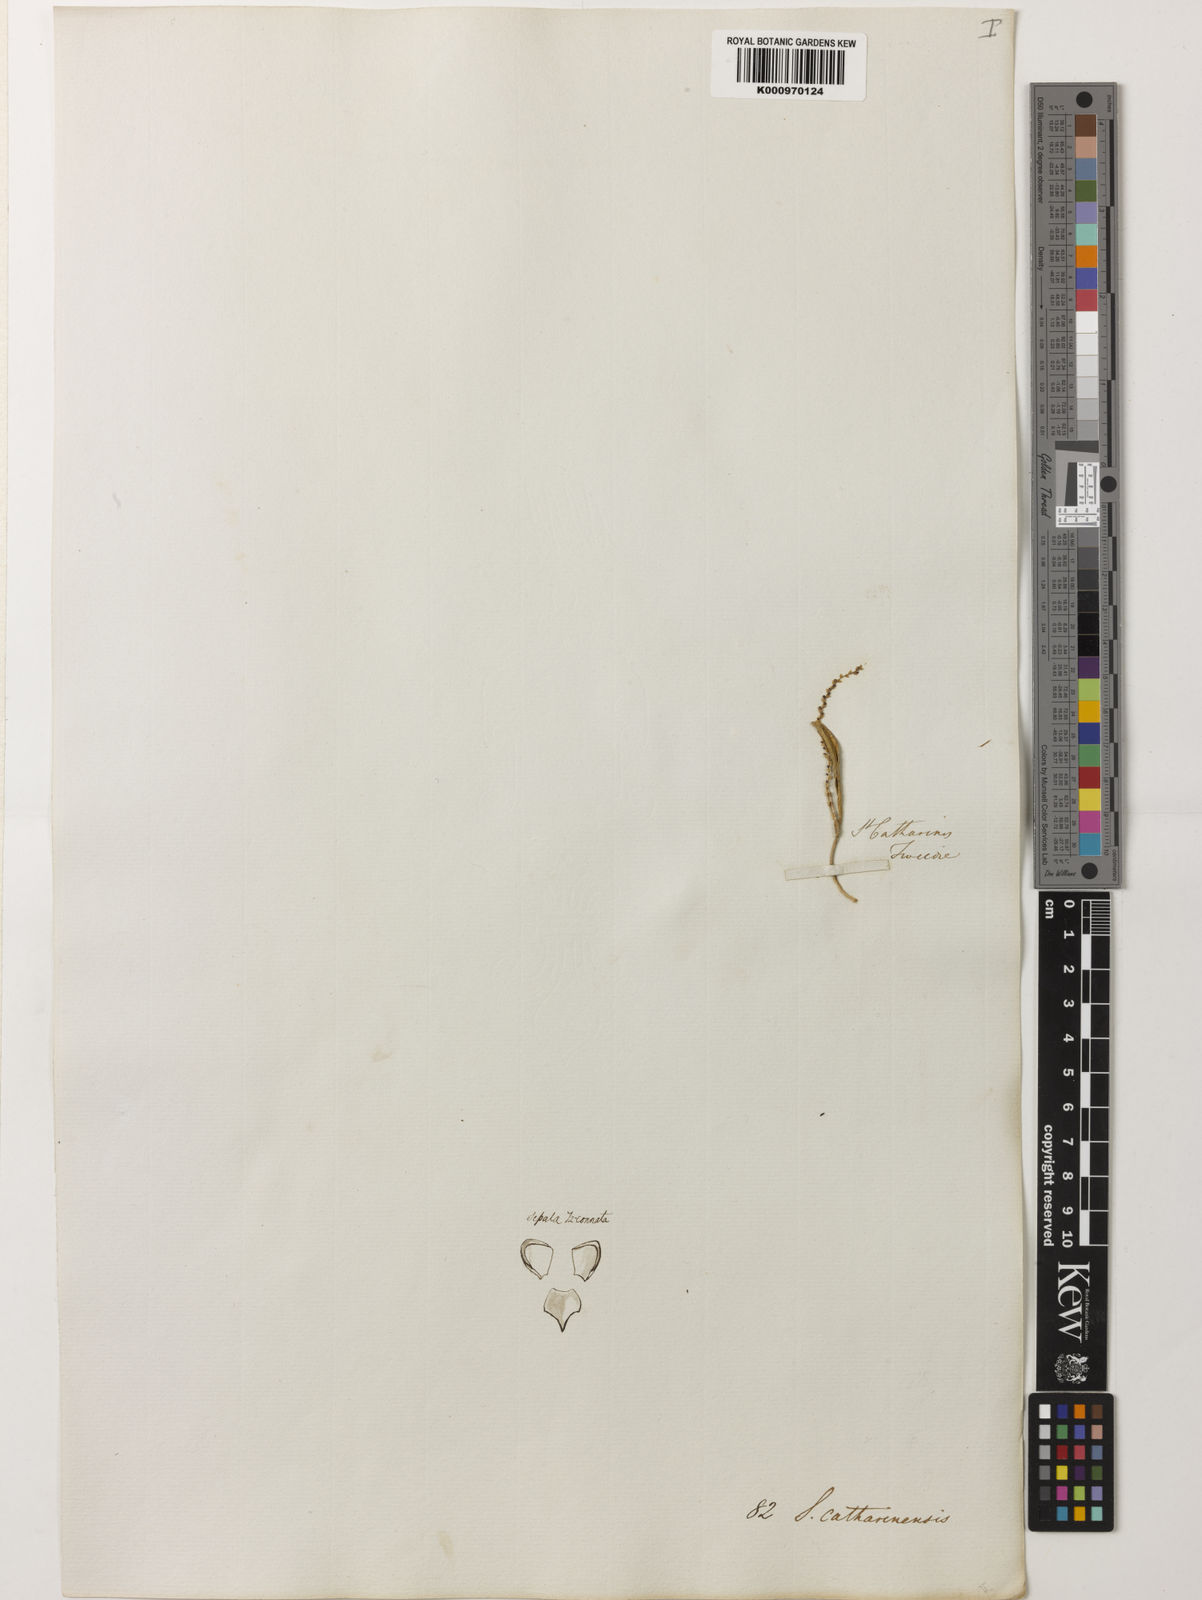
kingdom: Plantae
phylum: Tracheophyta
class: Liliopsida
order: Asparagales
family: Orchidaceae
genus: Stelis
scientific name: Stelis aprica
